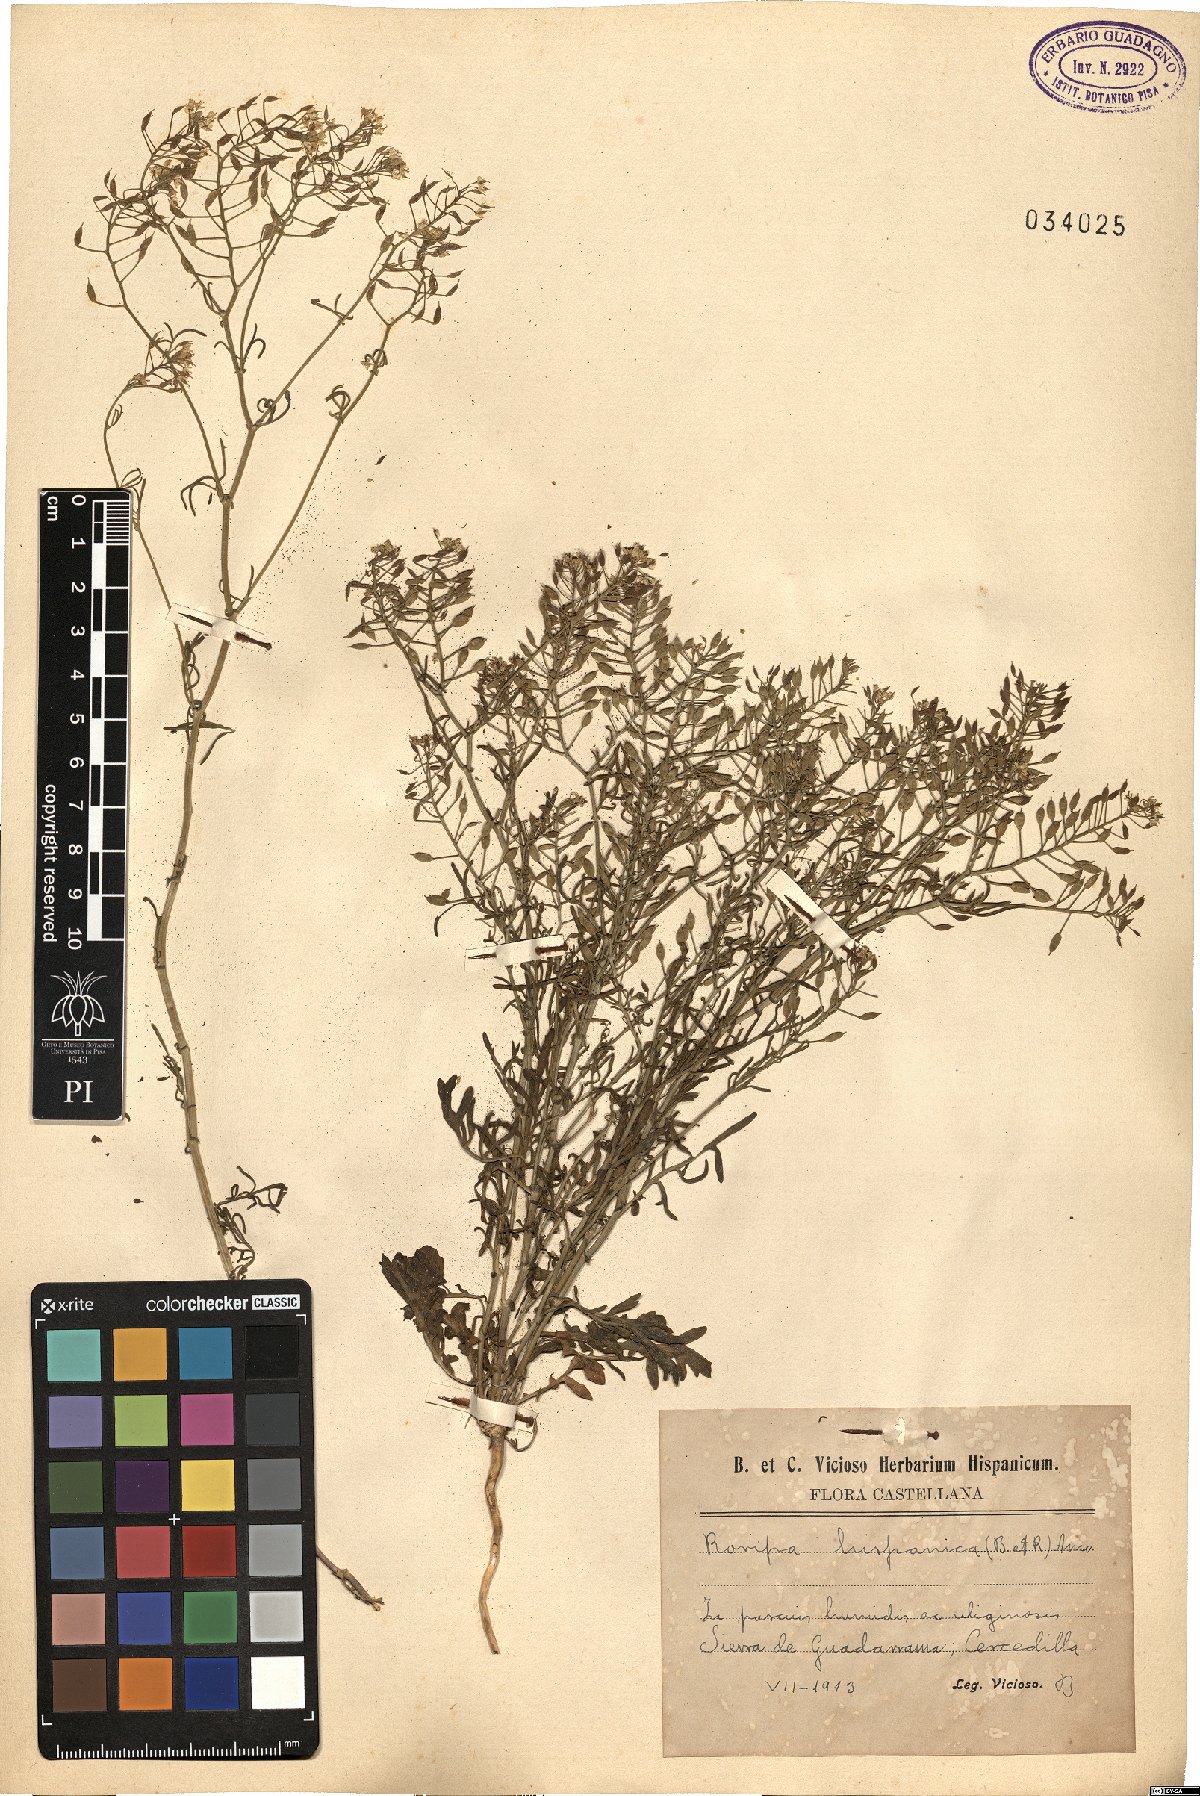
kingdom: Plantae
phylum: Tracheophyta
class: Magnoliopsida
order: Brassicales
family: Brassicaceae
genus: Rorippa
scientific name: Rorippa pyrenaica
